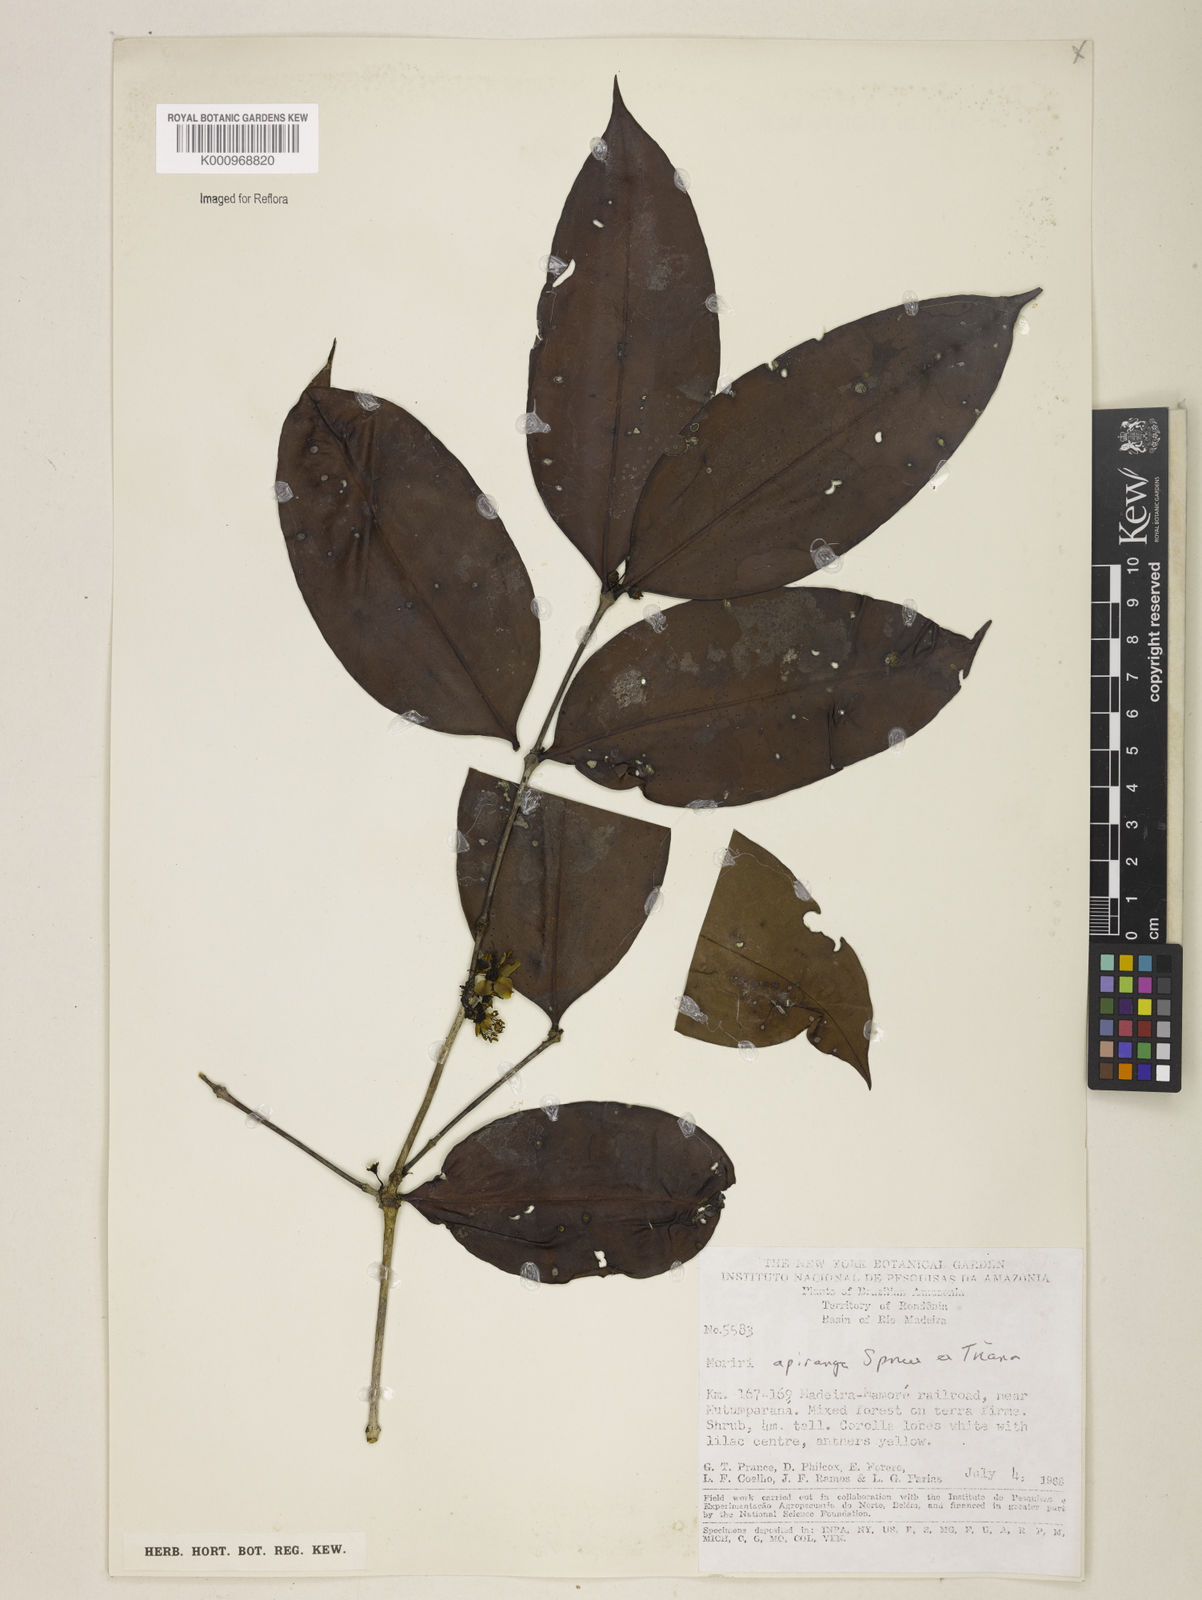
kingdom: Plantae
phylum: Tracheophyta
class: Magnoliopsida
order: Myrtales
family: Melastomataceae
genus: Mouriri
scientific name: Mouriri apiranga
